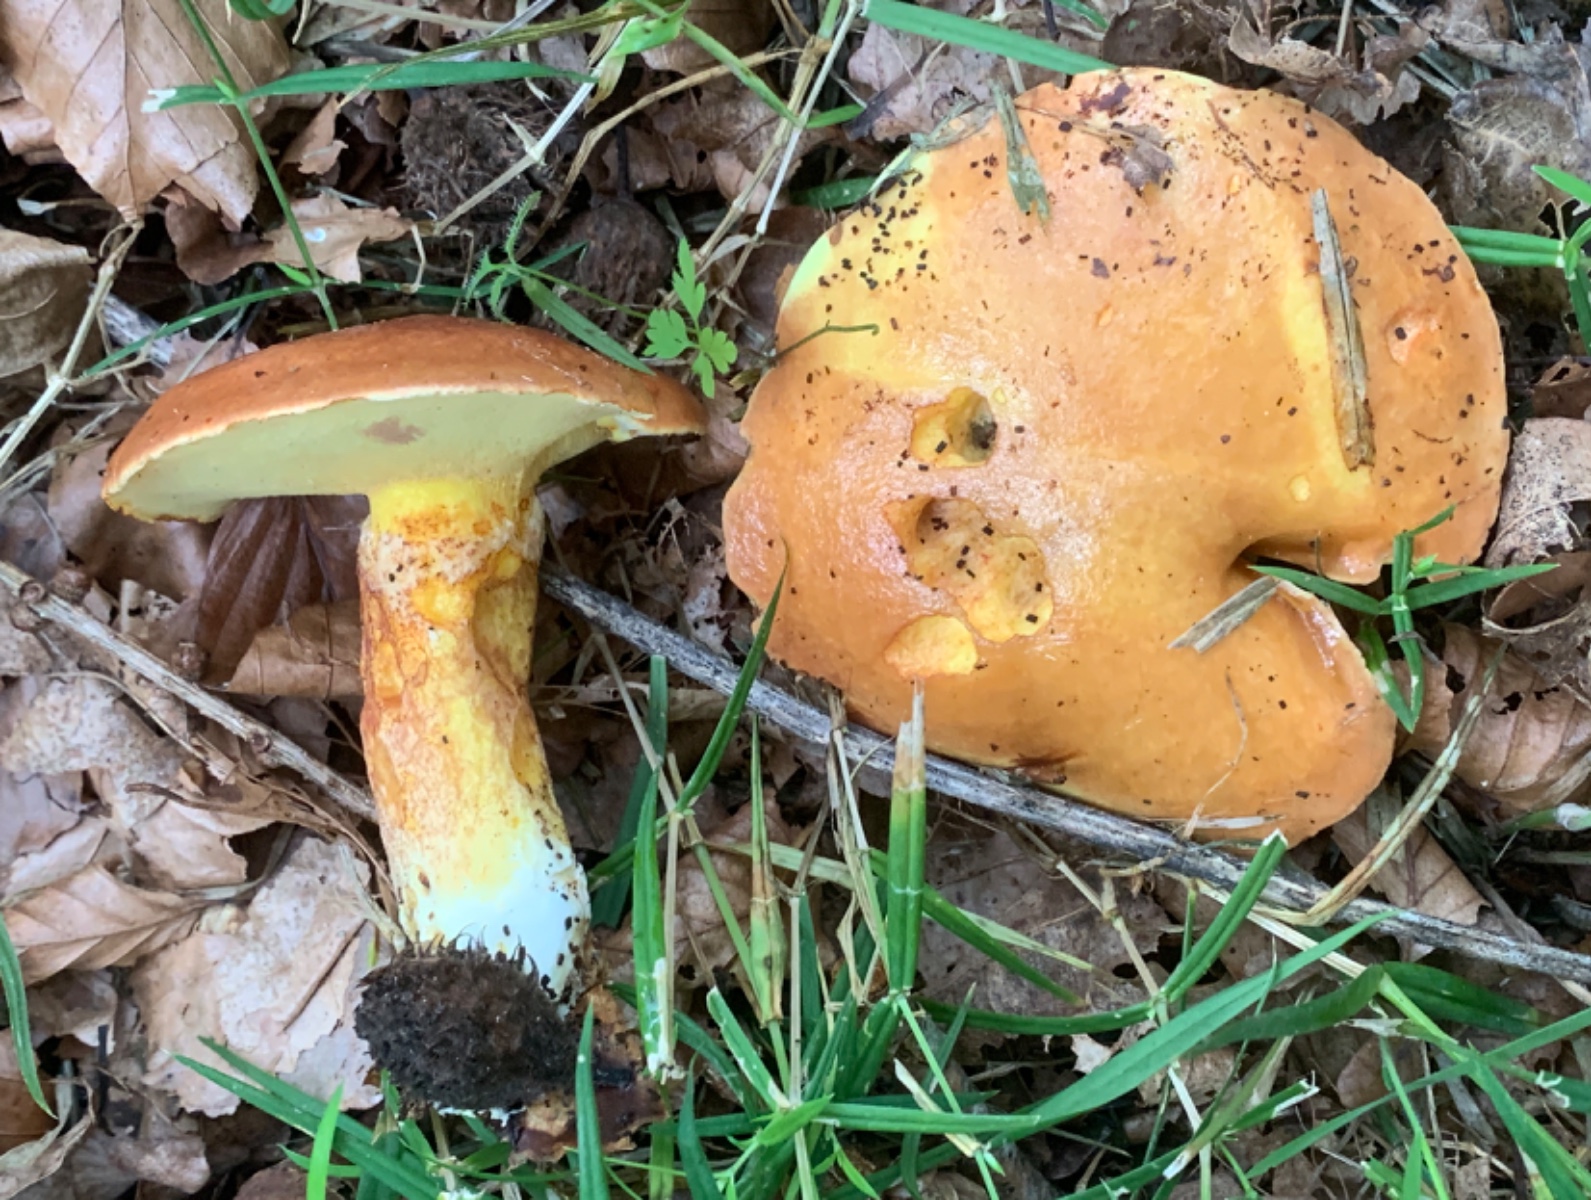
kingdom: Fungi
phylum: Basidiomycota
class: Agaricomycetes
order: Boletales
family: Suillaceae
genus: Suillus
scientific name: Suillus grevillei
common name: lærke-slimrørhat
